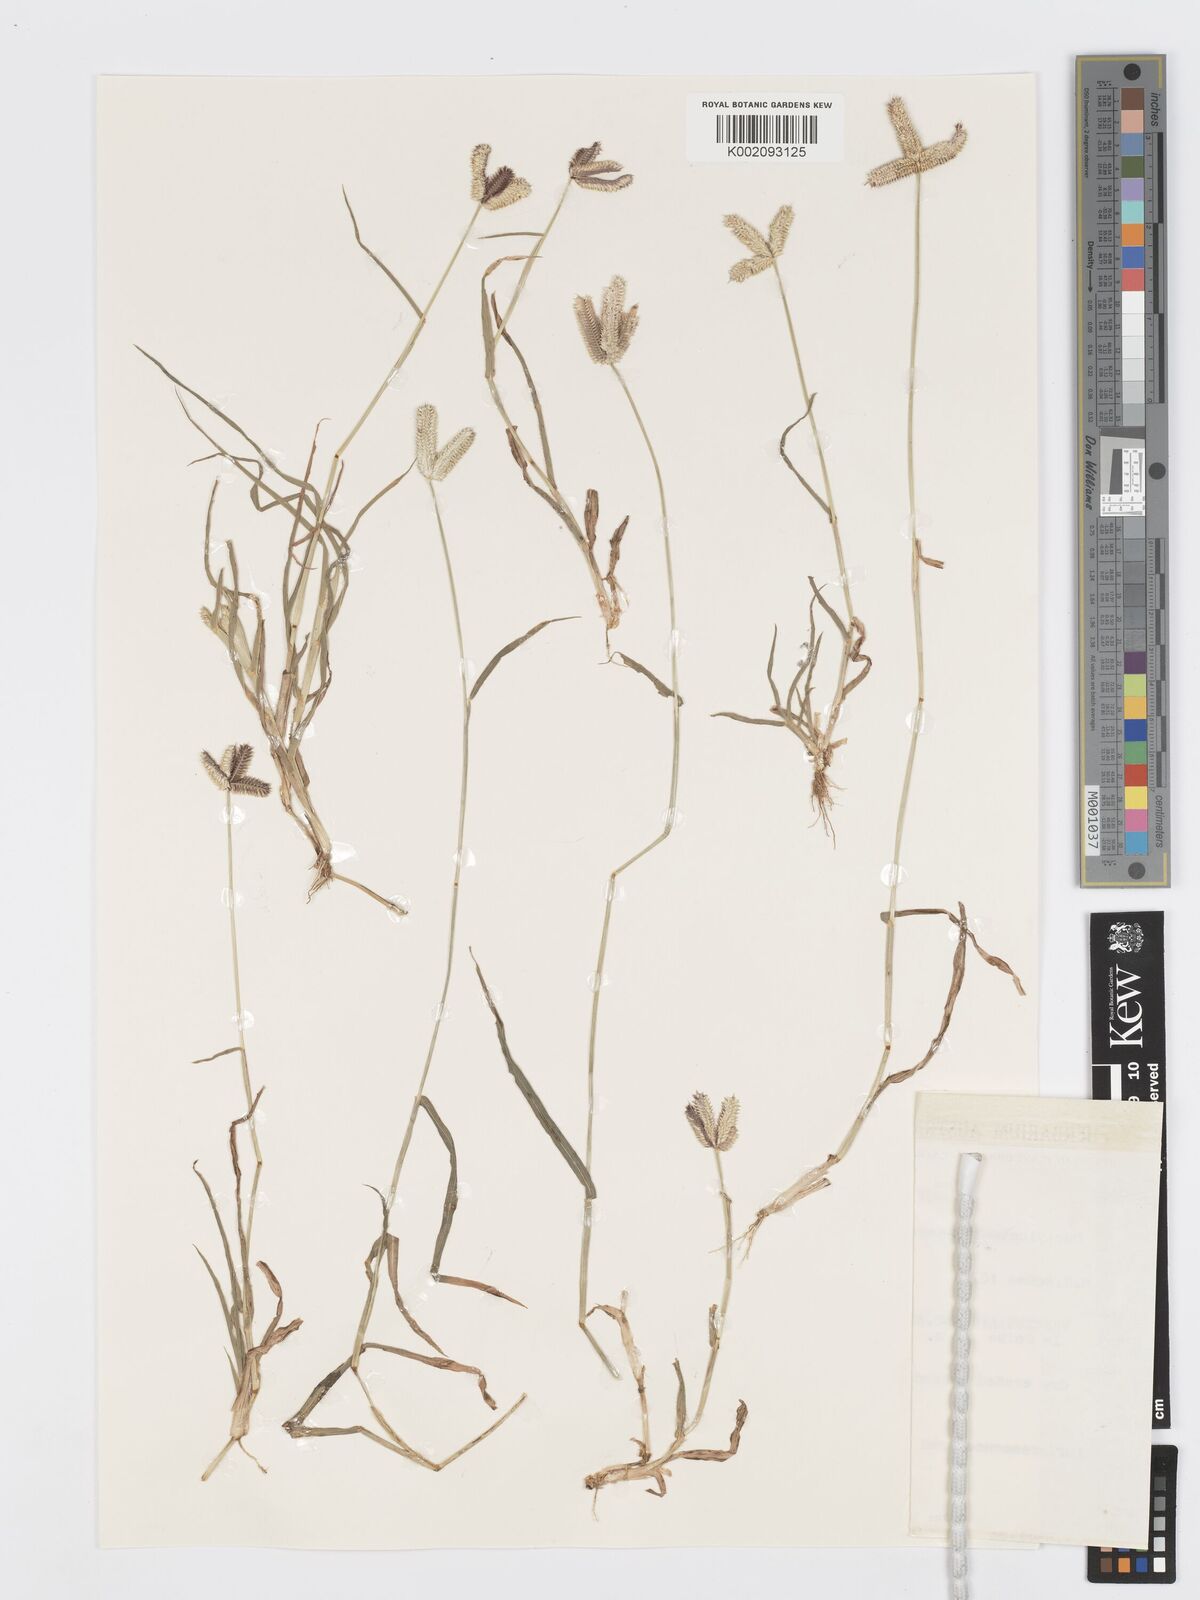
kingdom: Plantae
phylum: Tracheophyta
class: Liliopsida
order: Poales
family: Poaceae
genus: Dactyloctenium
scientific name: Dactyloctenium aegyptium
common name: Egyptian grass
